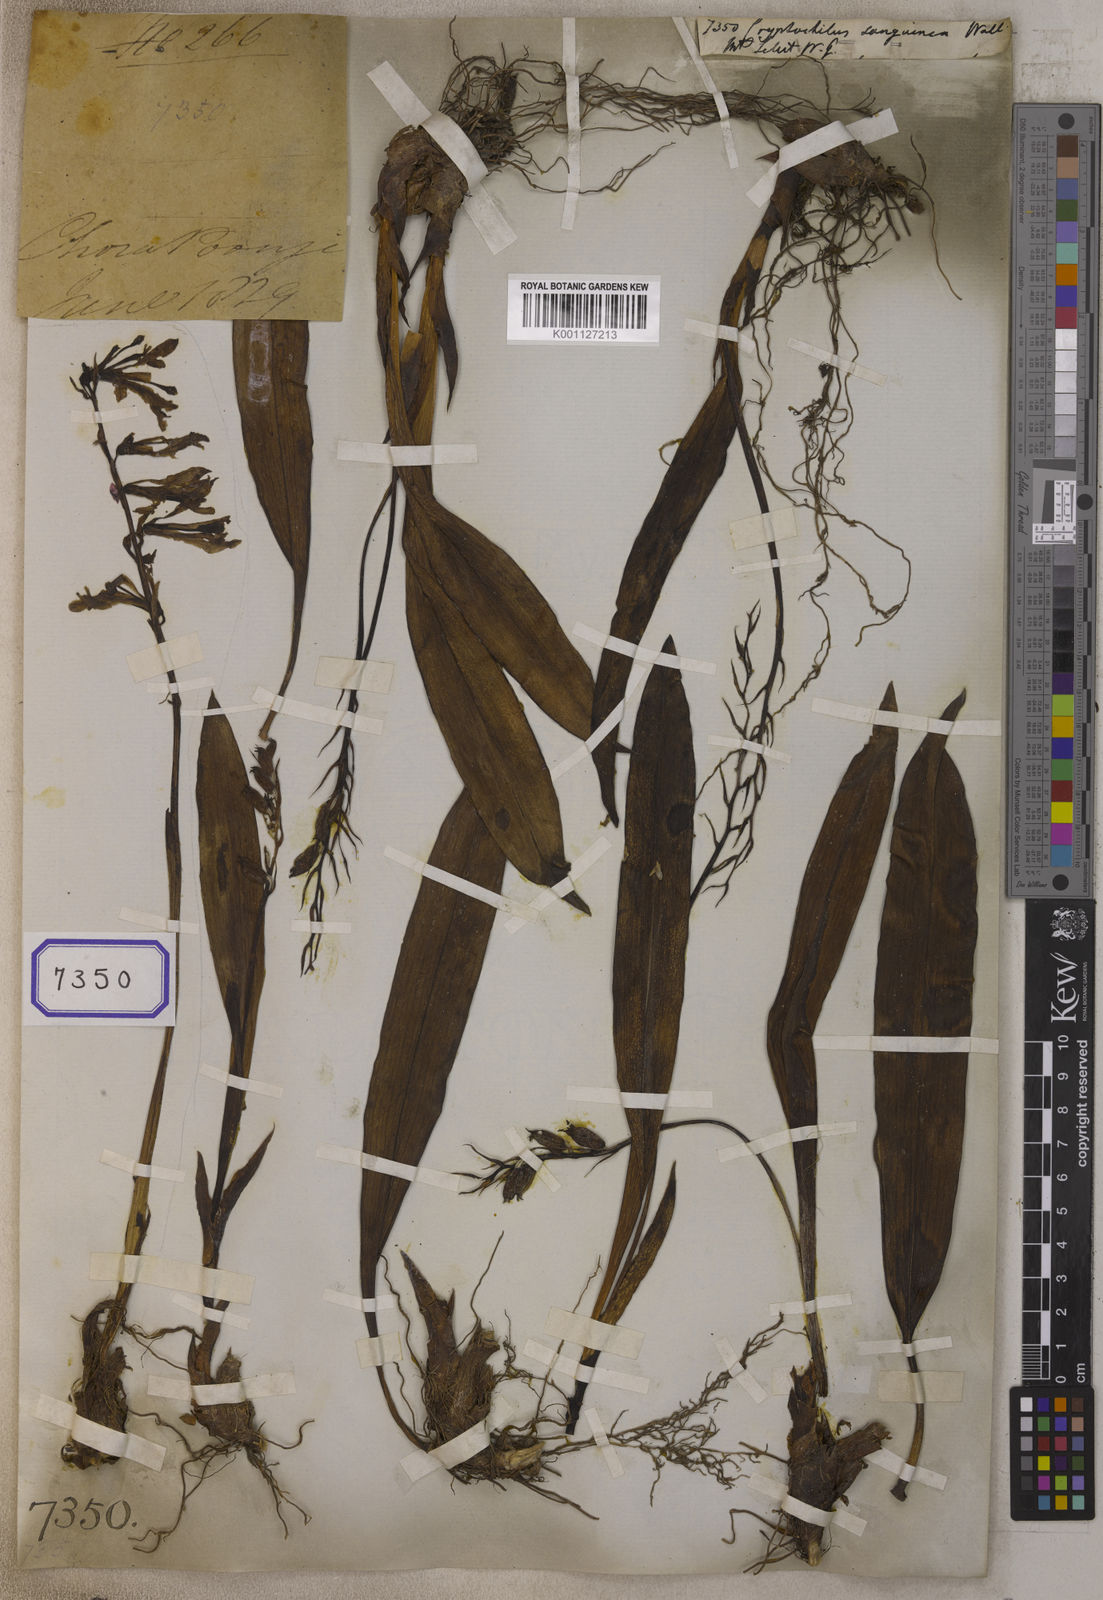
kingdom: Plantae
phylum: Tracheophyta
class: Liliopsida
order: Asparagales
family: Orchidaceae
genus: Cryptochilus
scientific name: Cryptochilus sanguineus
